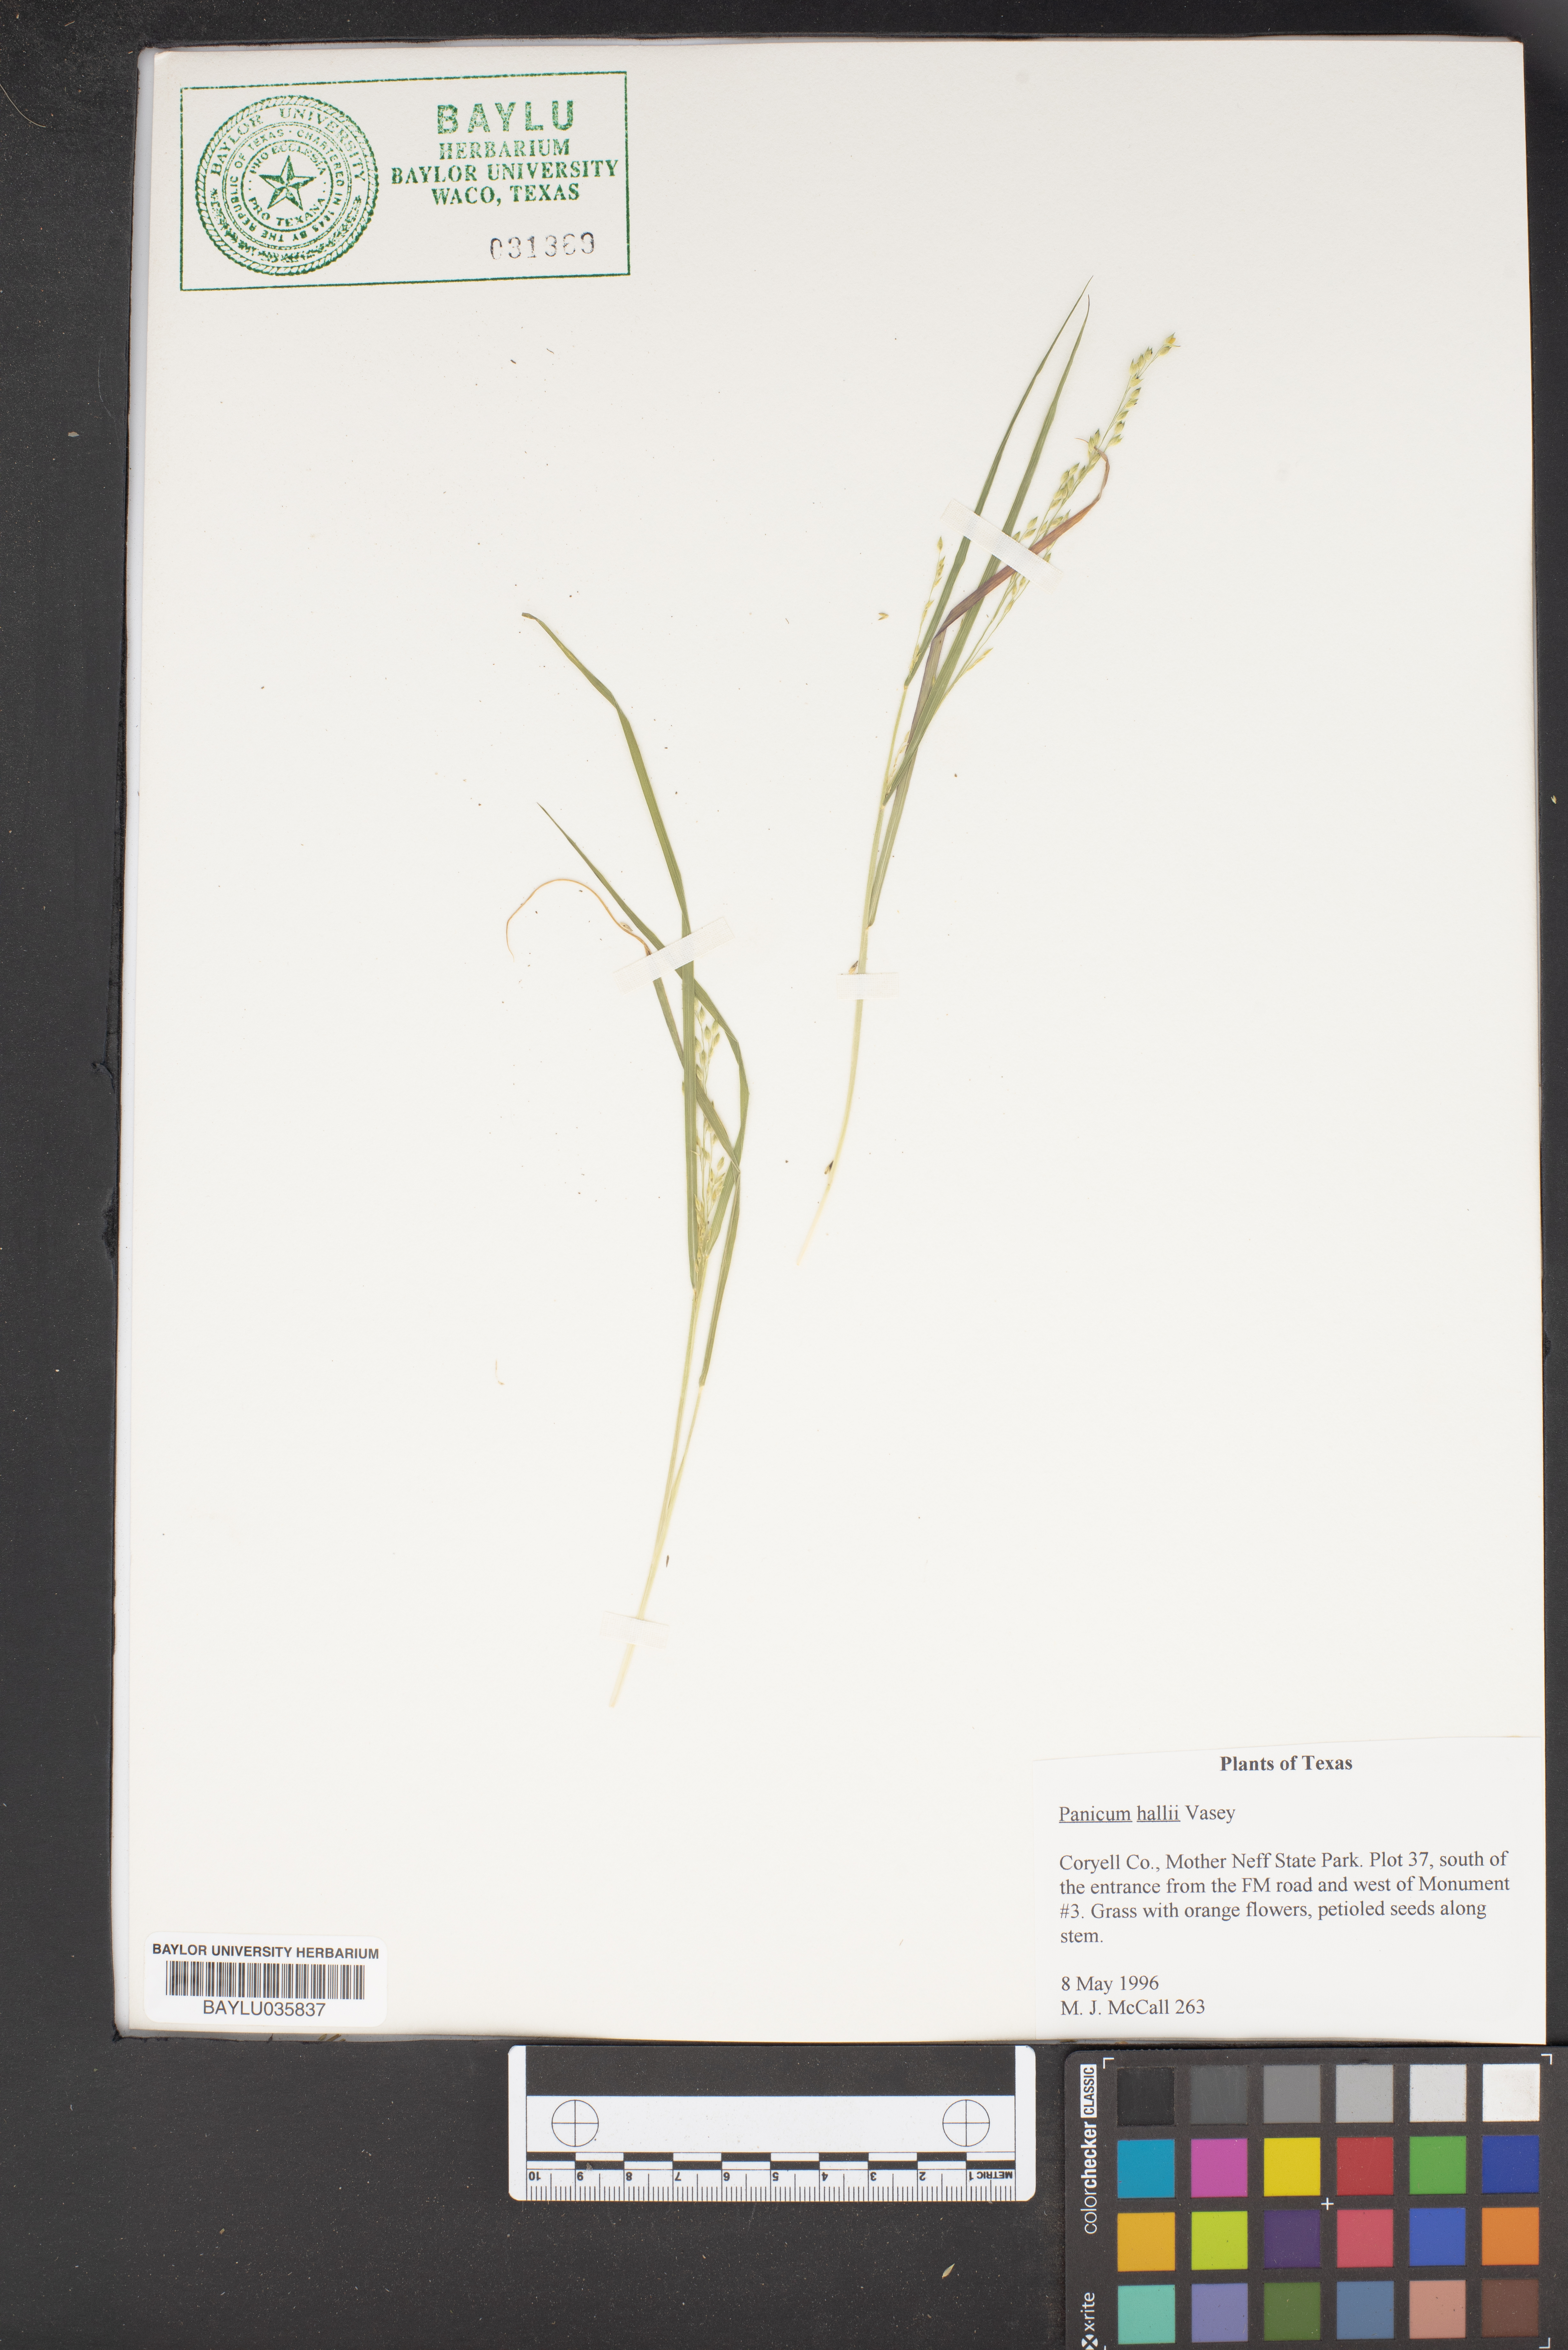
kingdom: Plantae
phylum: Tracheophyta
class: Liliopsida
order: Poales
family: Poaceae
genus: Panicum
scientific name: Panicum hallii
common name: Hall's witchgrass
